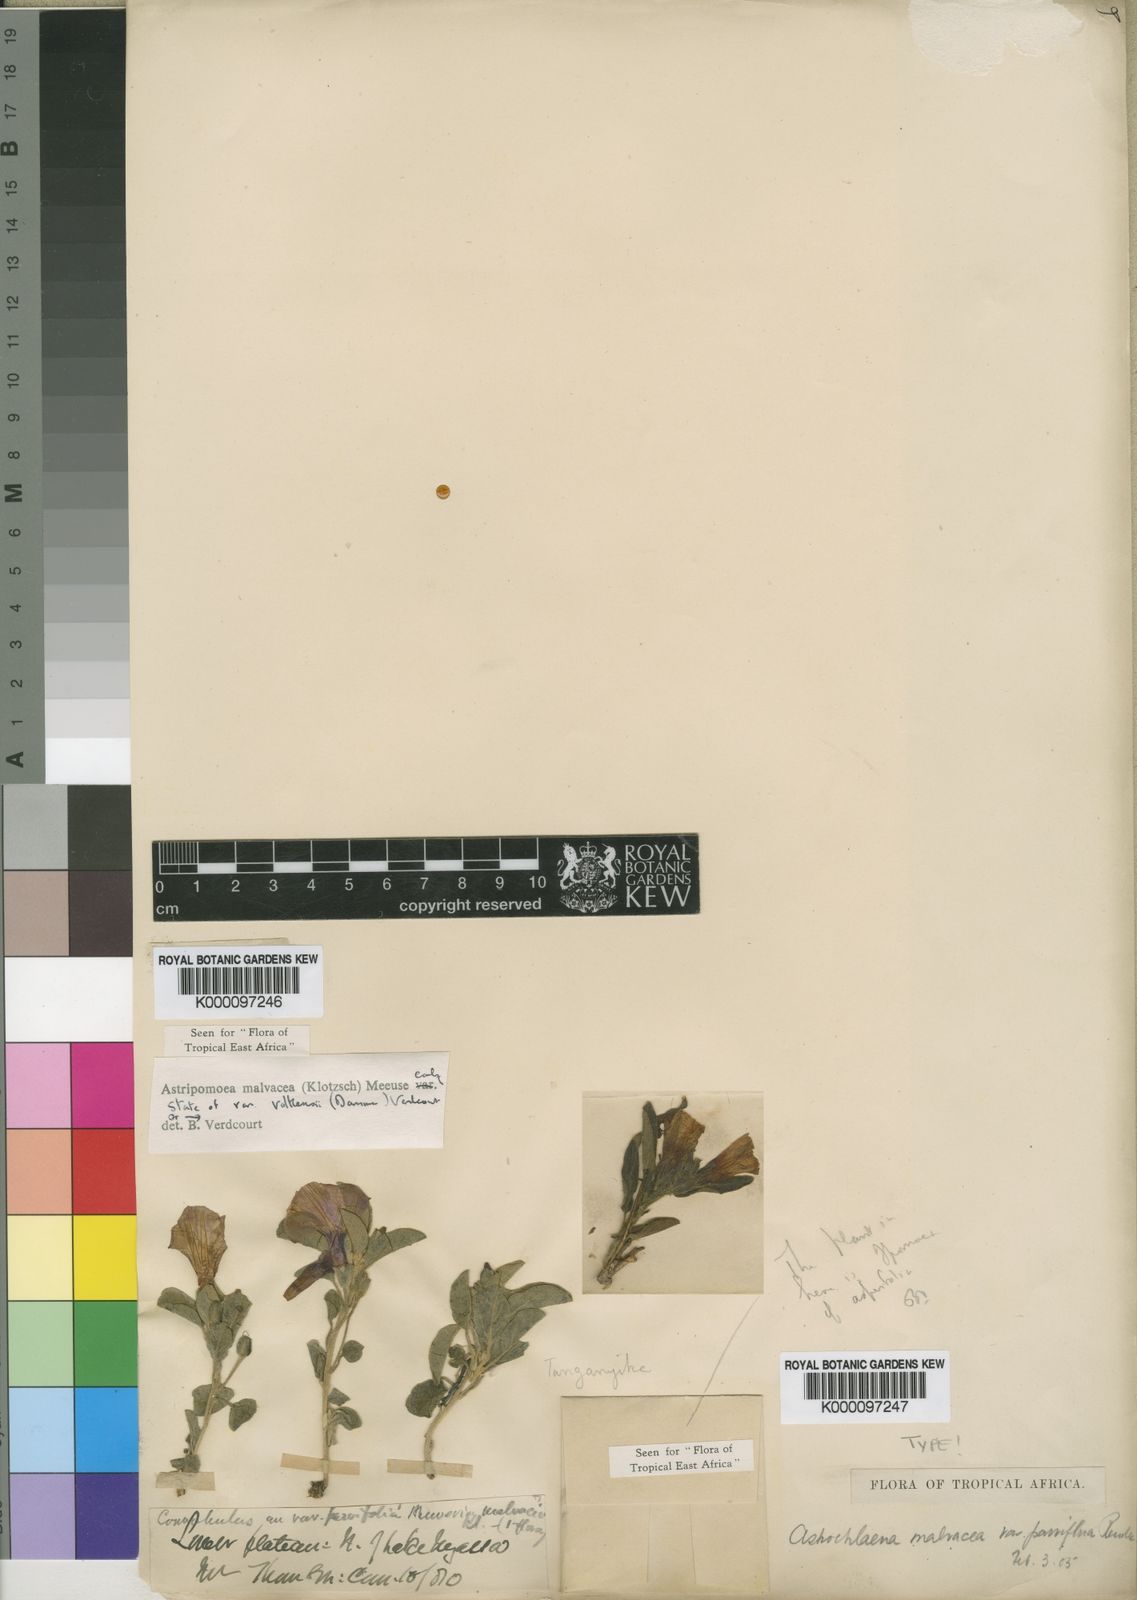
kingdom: Plantae
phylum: Tracheophyta
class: Magnoliopsida
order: Solanales
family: Convolvulaceae
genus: Astripomoea
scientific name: Astripomoea malvacea
